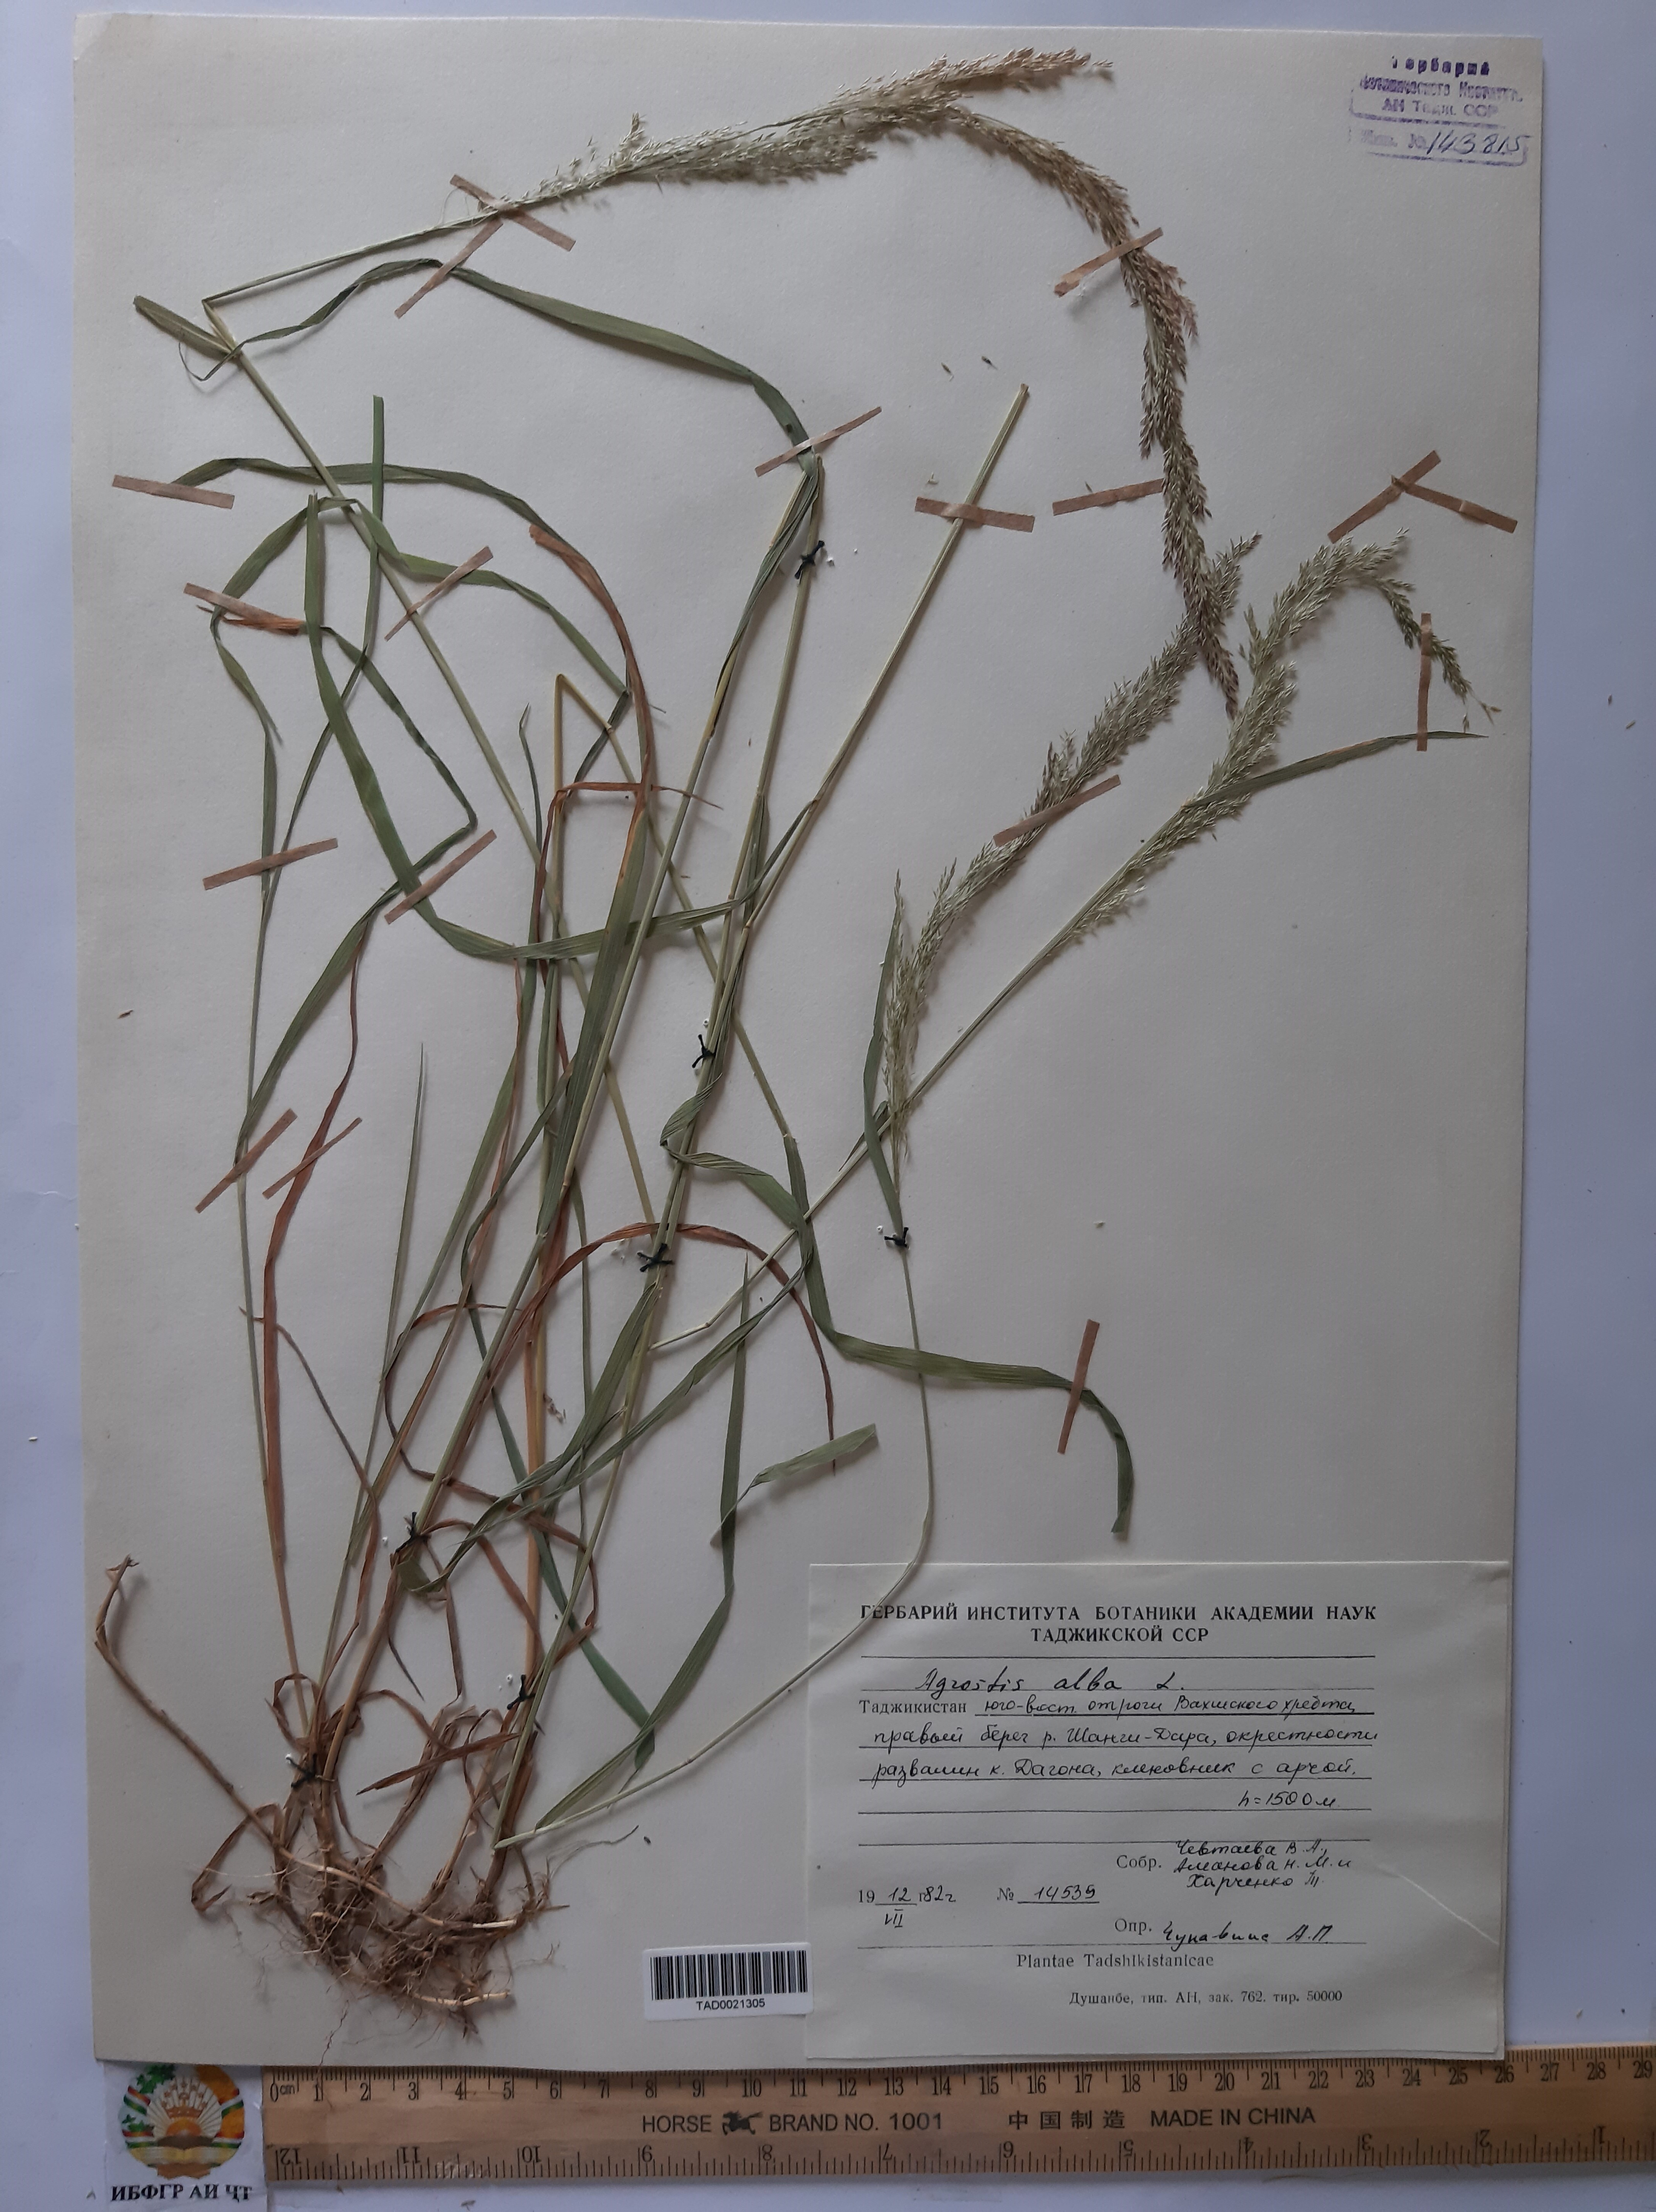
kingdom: Plantae
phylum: Tracheophyta
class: Liliopsida
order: Poales
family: Poaceae
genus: Poa
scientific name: Poa nemoralis
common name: Wood bluegrass
